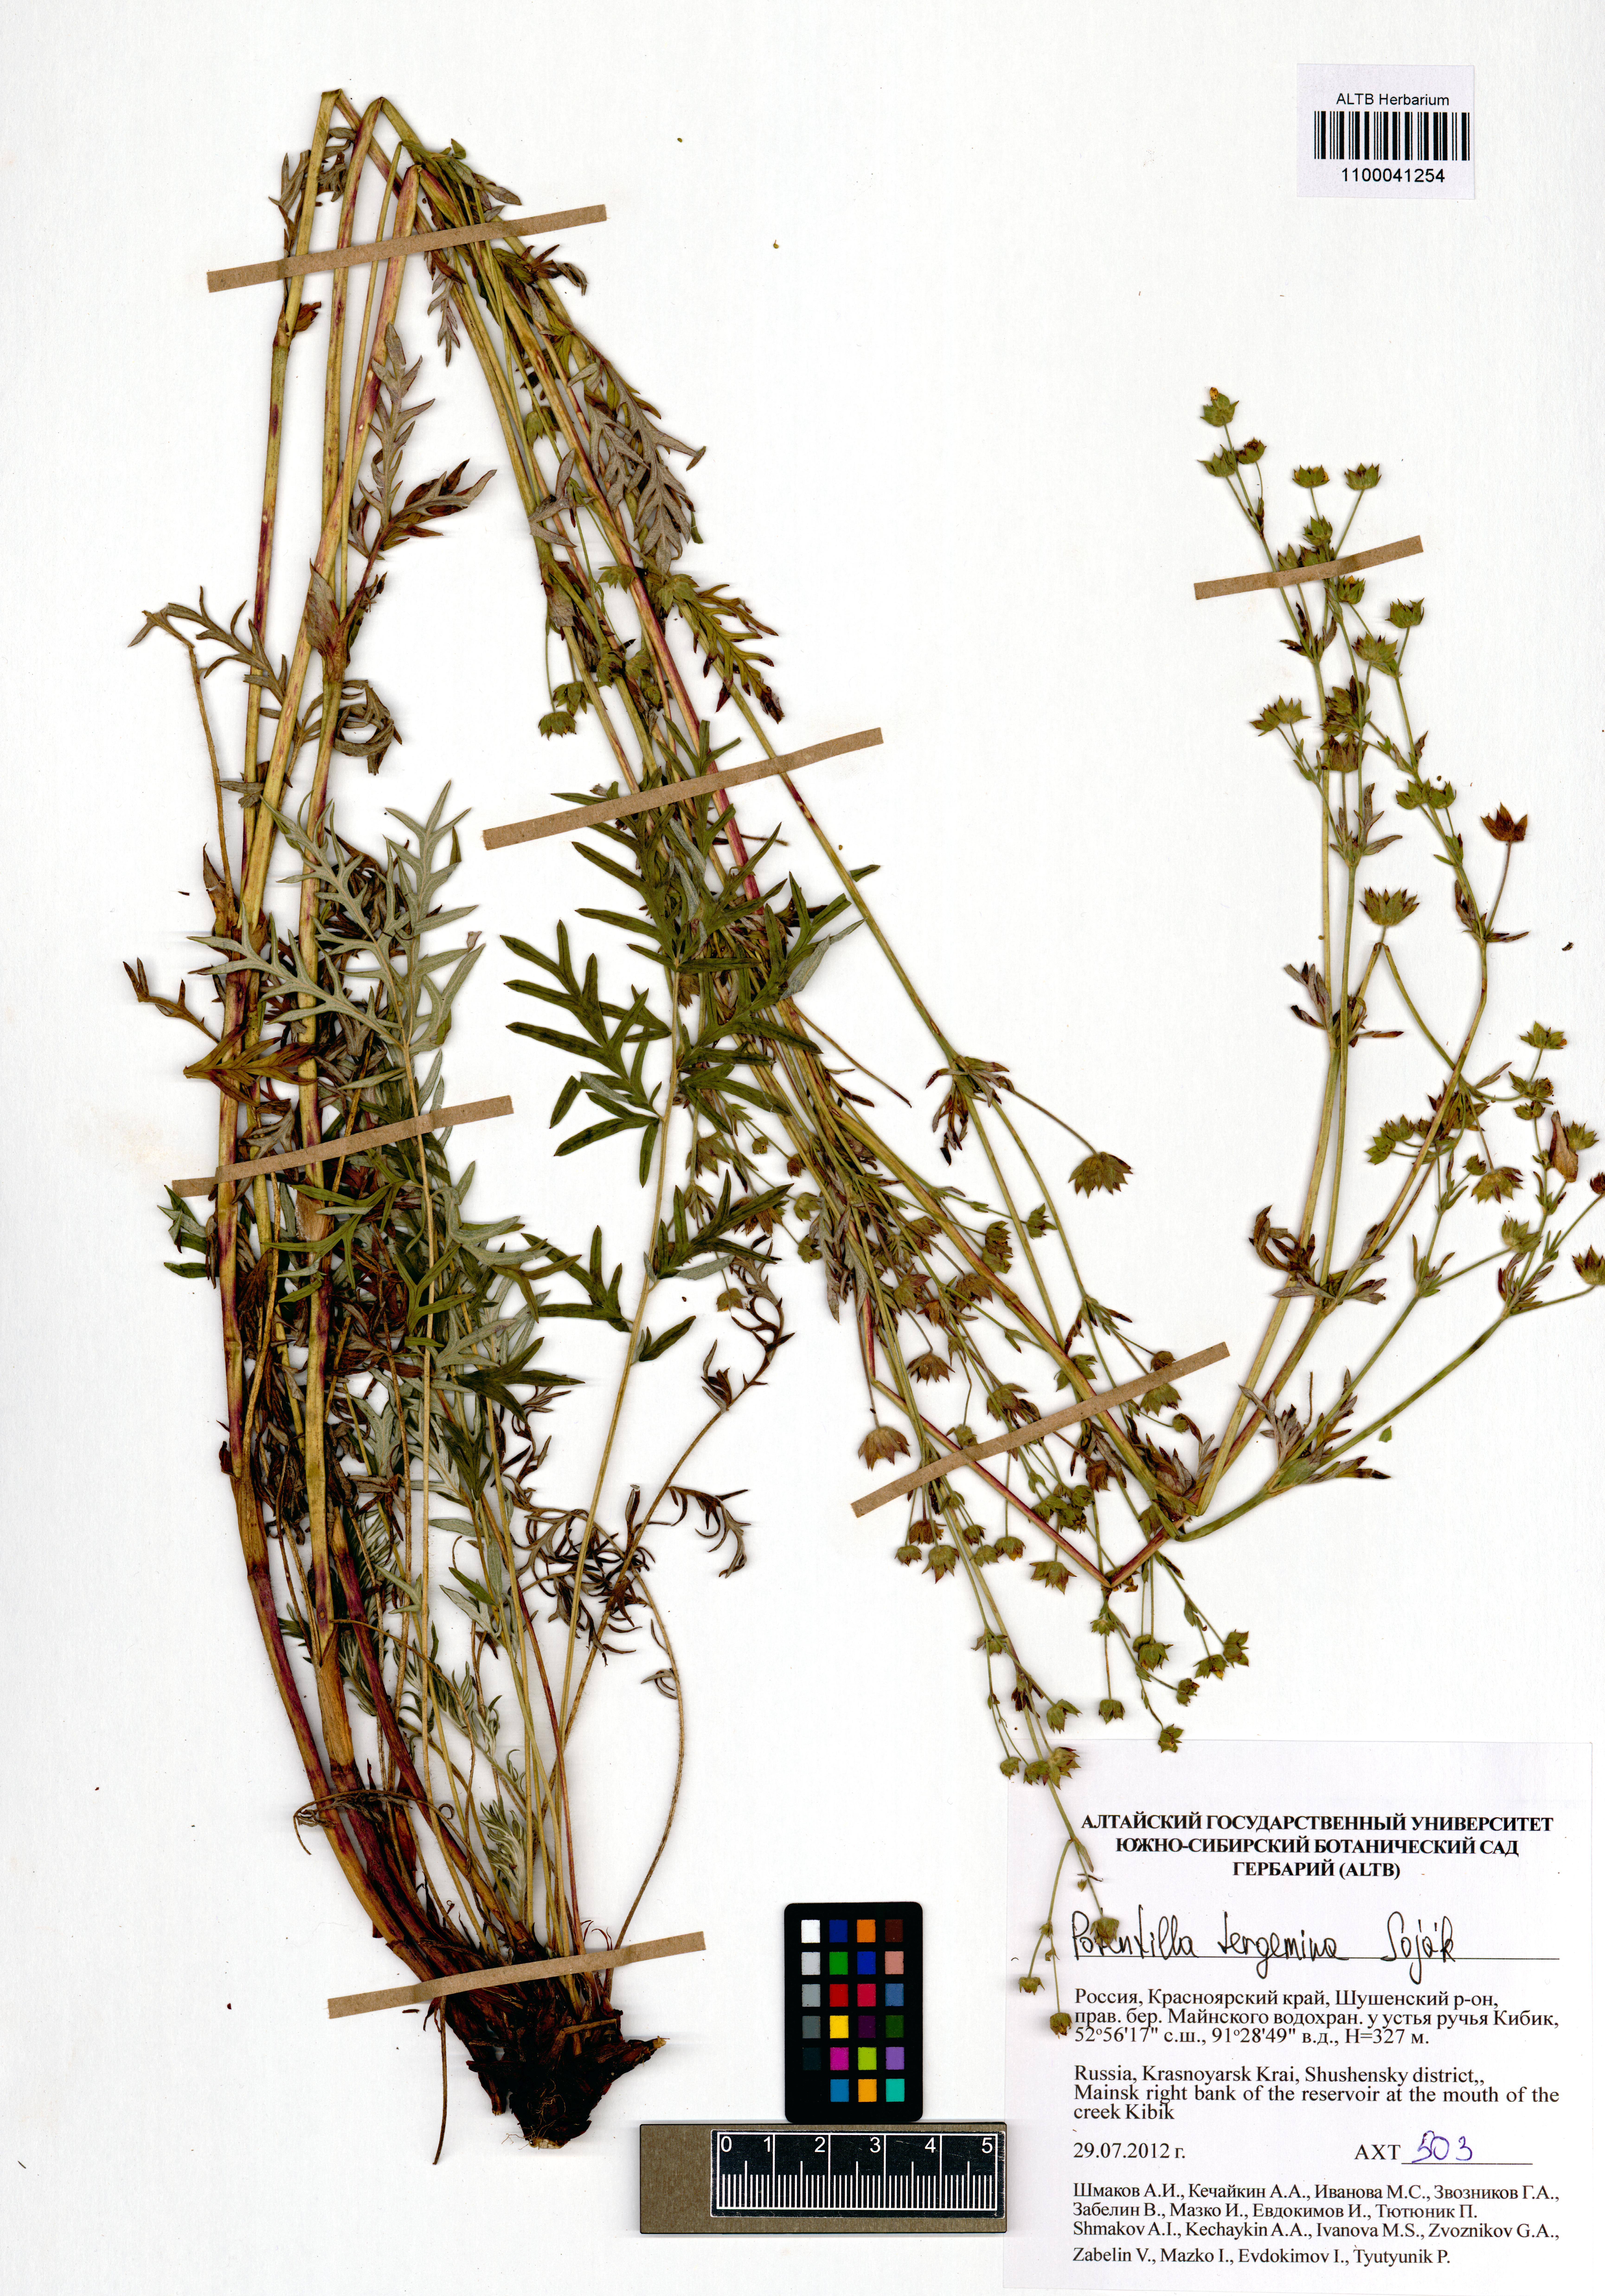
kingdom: Plantae
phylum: Tracheophyta
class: Magnoliopsida
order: Rosales
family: Rosaceae
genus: Potentilla
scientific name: Potentilla tergemina
